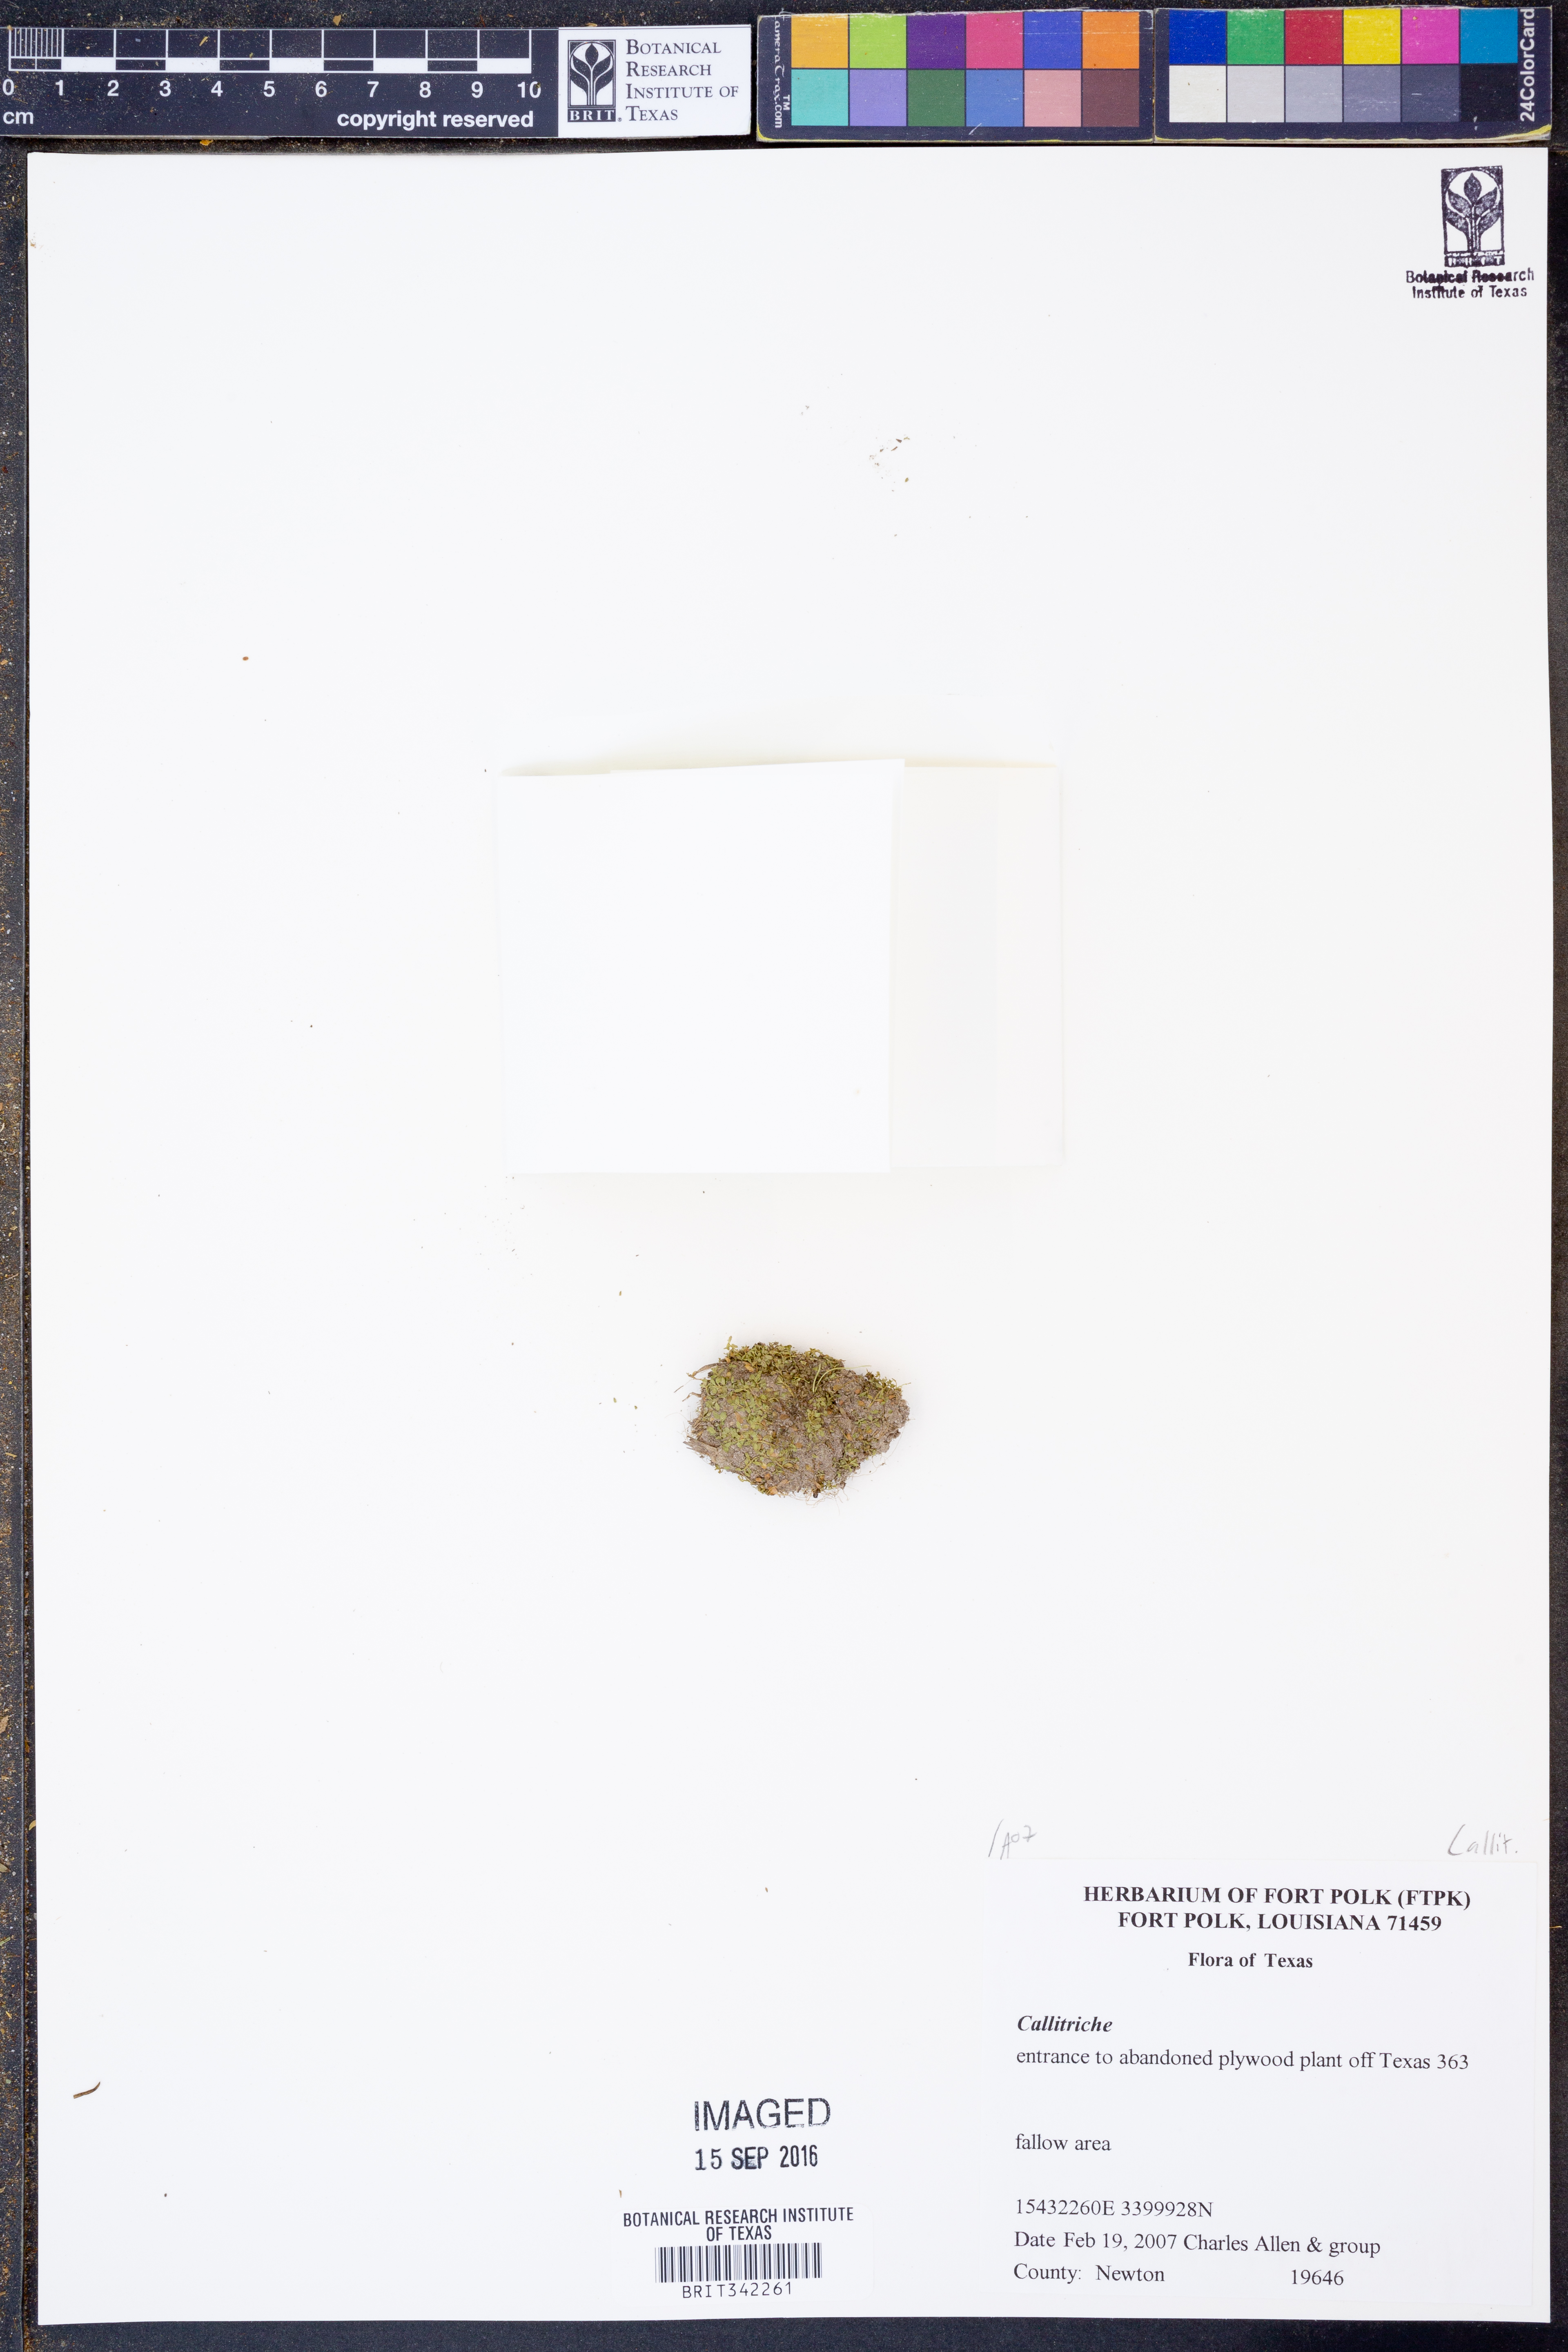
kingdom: Plantae
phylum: Tracheophyta
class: Magnoliopsida
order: Lamiales
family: Plantaginaceae
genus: Callitriche
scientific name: Callitriche
